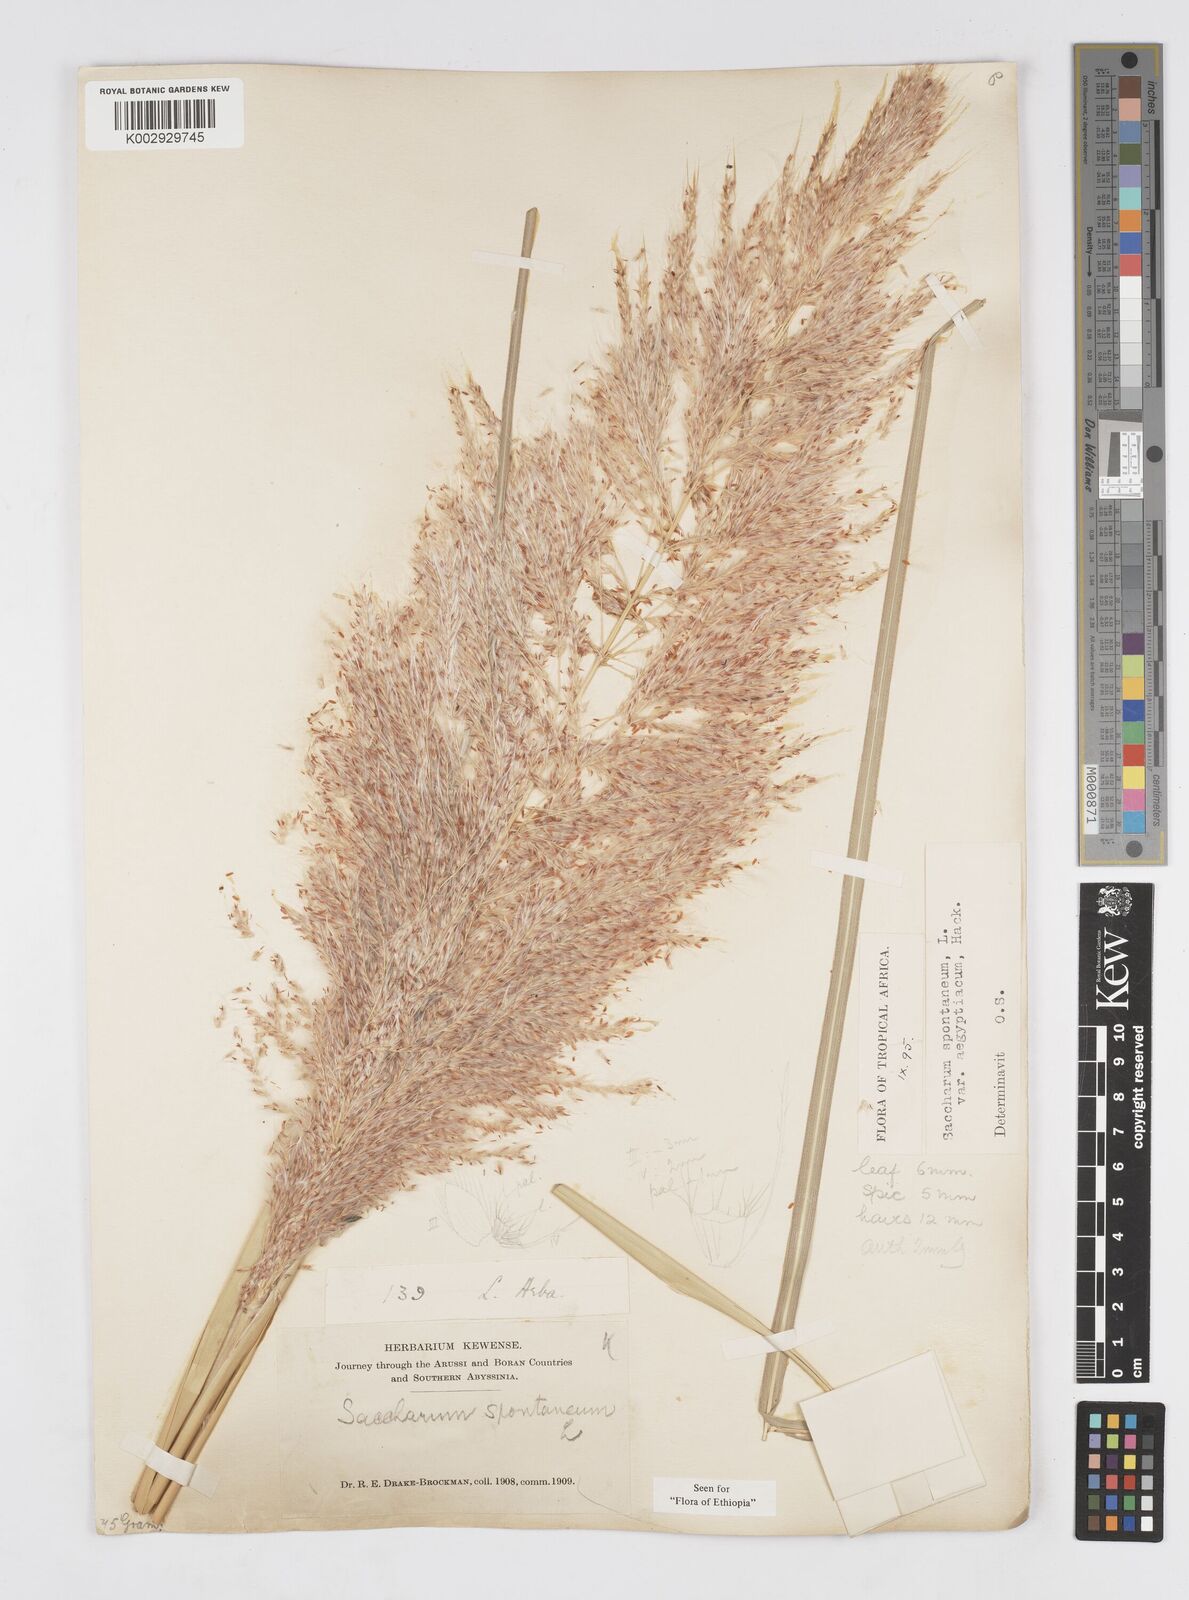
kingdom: Plantae
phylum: Tracheophyta
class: Liliopsida
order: Poales
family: Poaceae
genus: Saccharum
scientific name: Saccharum spontaneum
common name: Wild sugarcane
